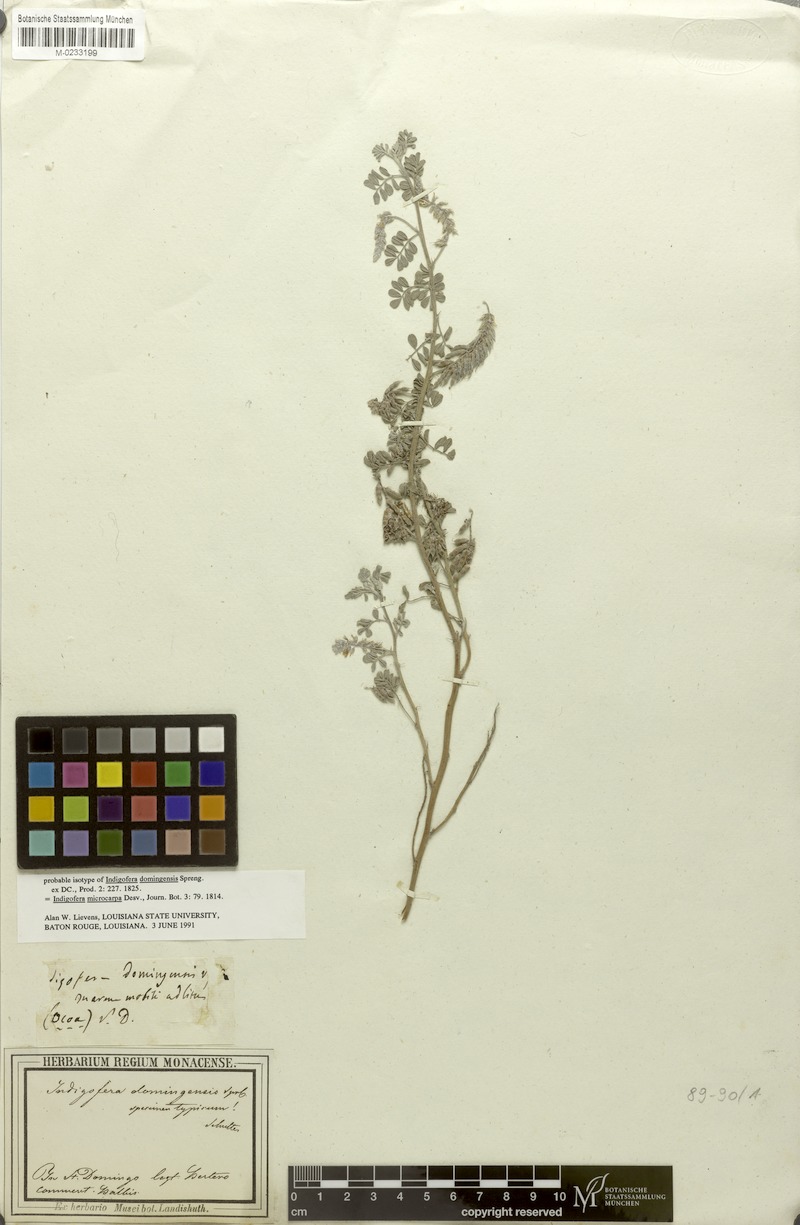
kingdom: Plantae
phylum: Tracheophyta
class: Magnoliopsida
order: Fabales
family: Fabaceae
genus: Indigofera
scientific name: Indigofera microcarpa
